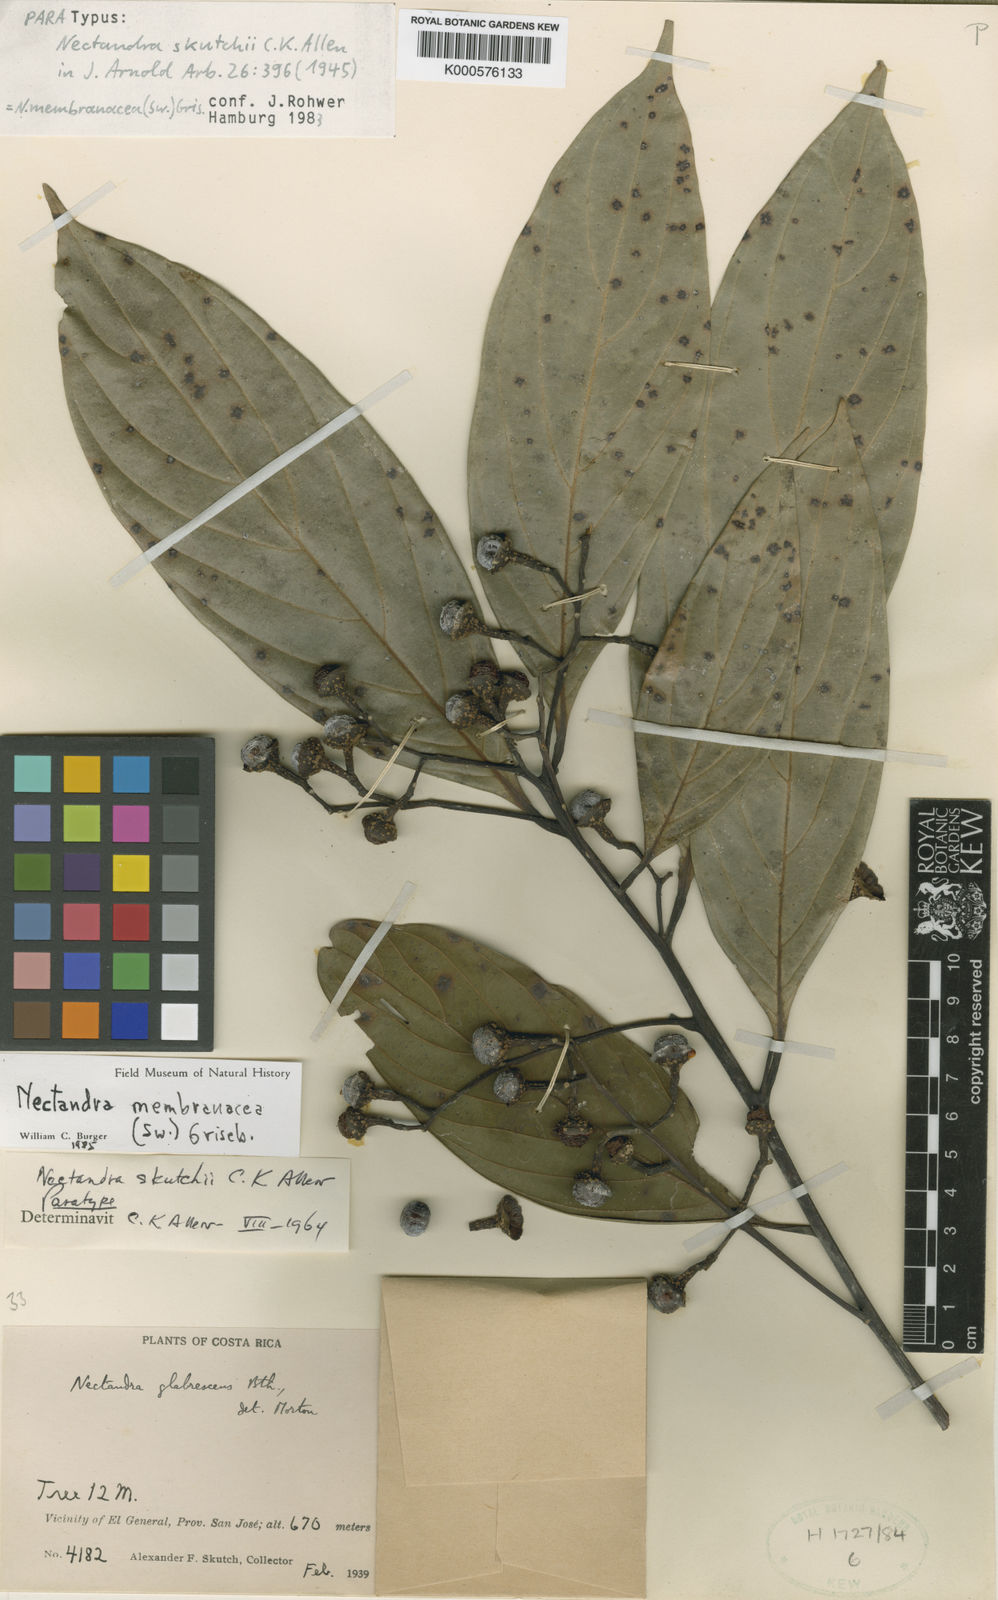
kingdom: Plantae
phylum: Tracheophyta
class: Magnoliopsida
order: Laurales
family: Lauraceae
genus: Nectandra
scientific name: Nectandra membranacea
